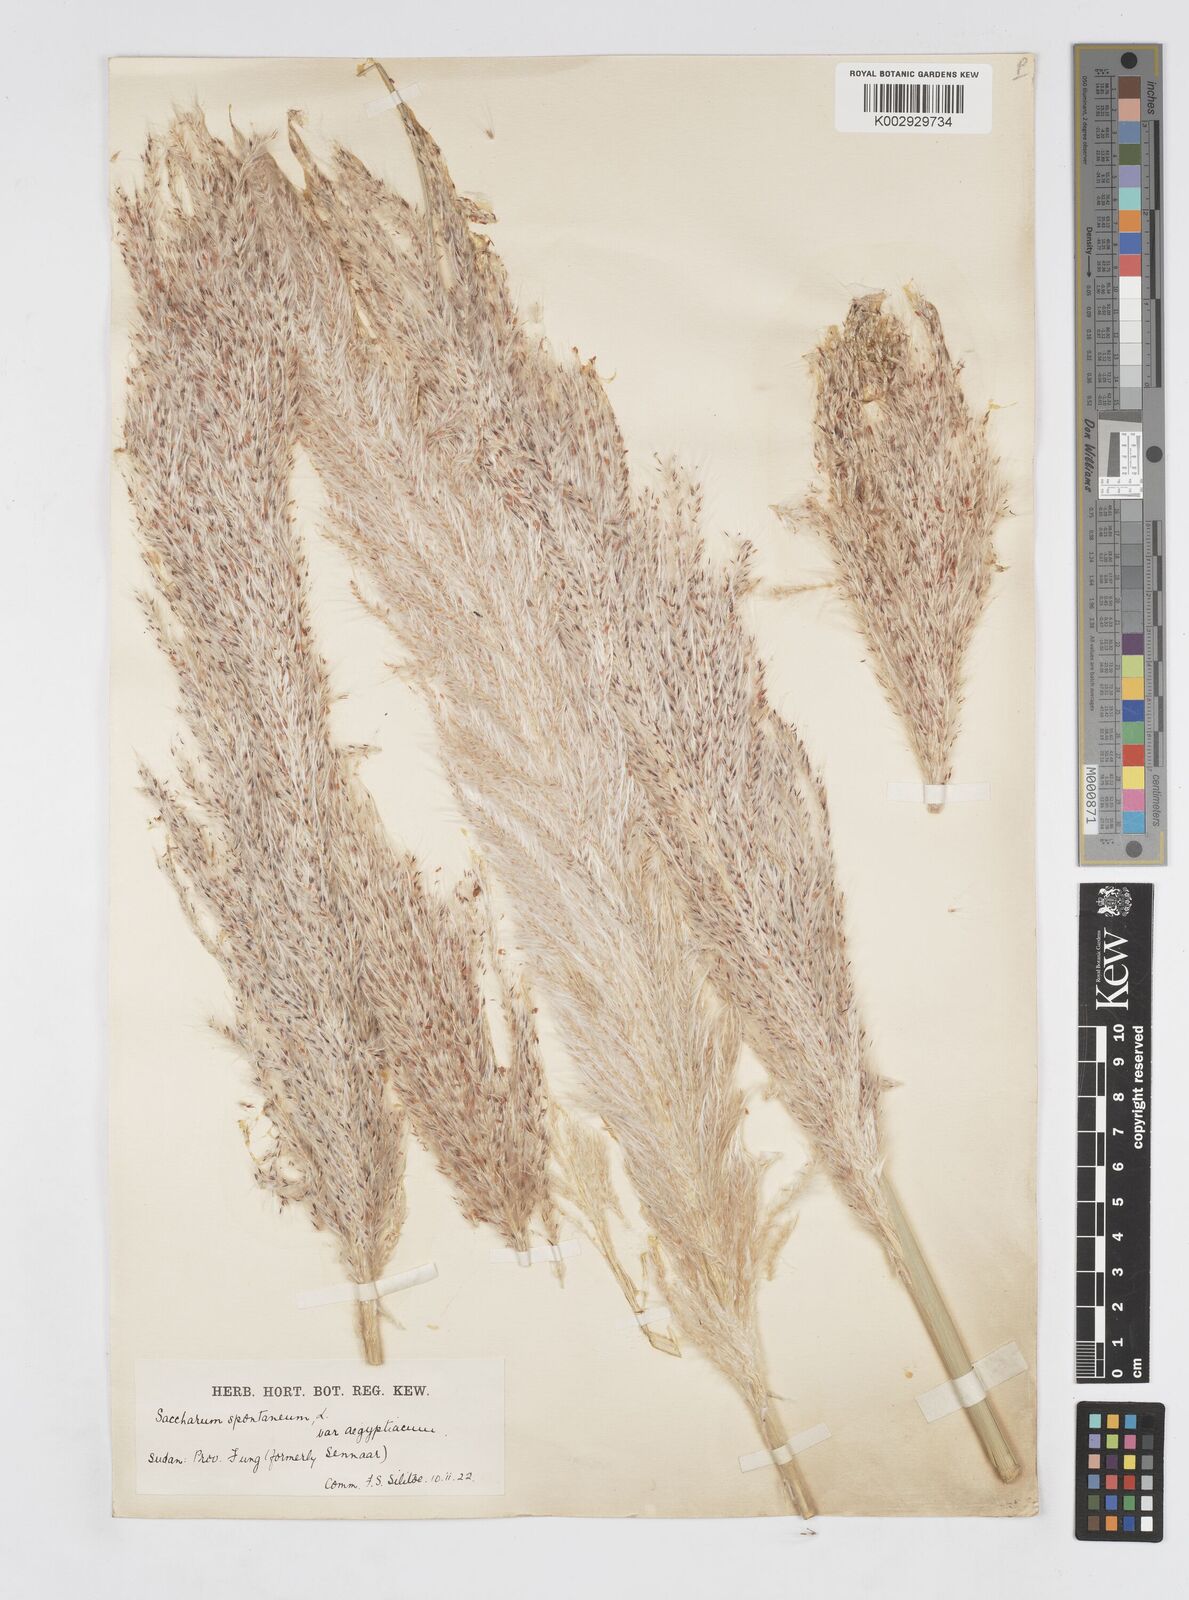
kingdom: Plantae
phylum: Tracheophyta
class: Liliopsida
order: Poales
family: Poaceae
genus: Saccharum
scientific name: Saccharum spontaneum
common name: Wild sugarcane
